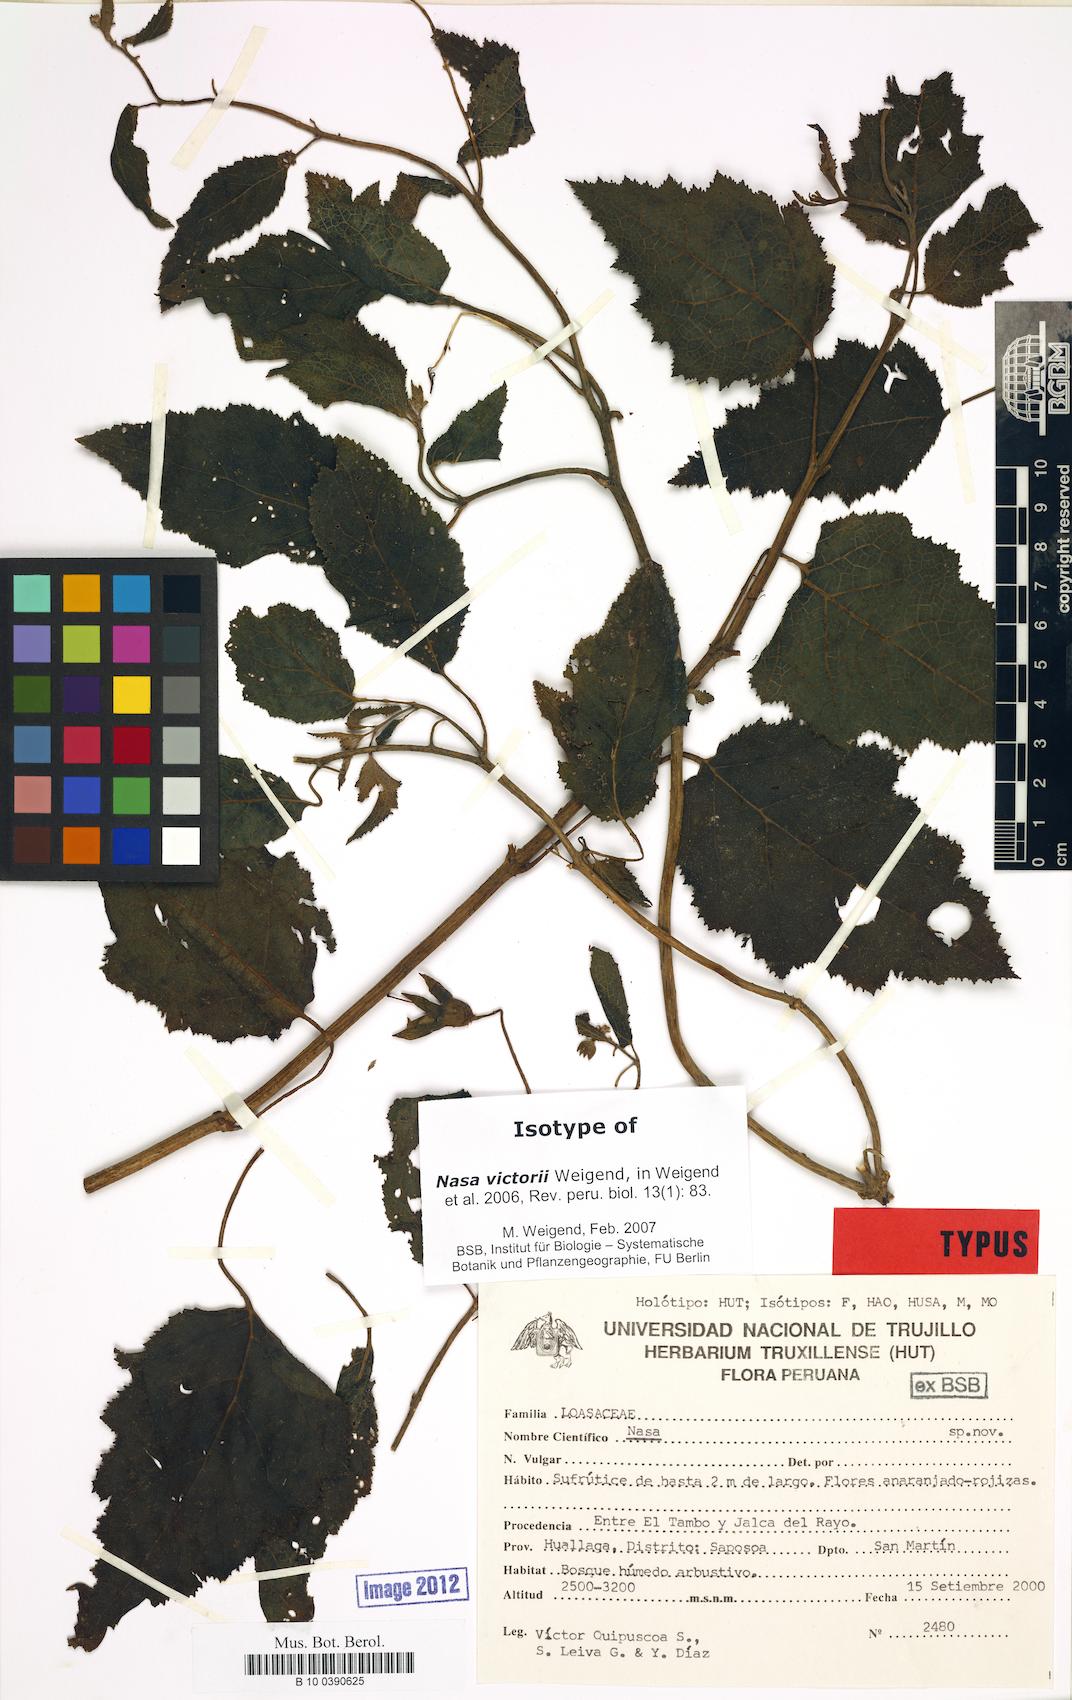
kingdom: Plantae
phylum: Tracheophyta
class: Magnoliopsida
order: Cornales
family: Loasaceae
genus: Nasa
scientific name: Nasa victorii
